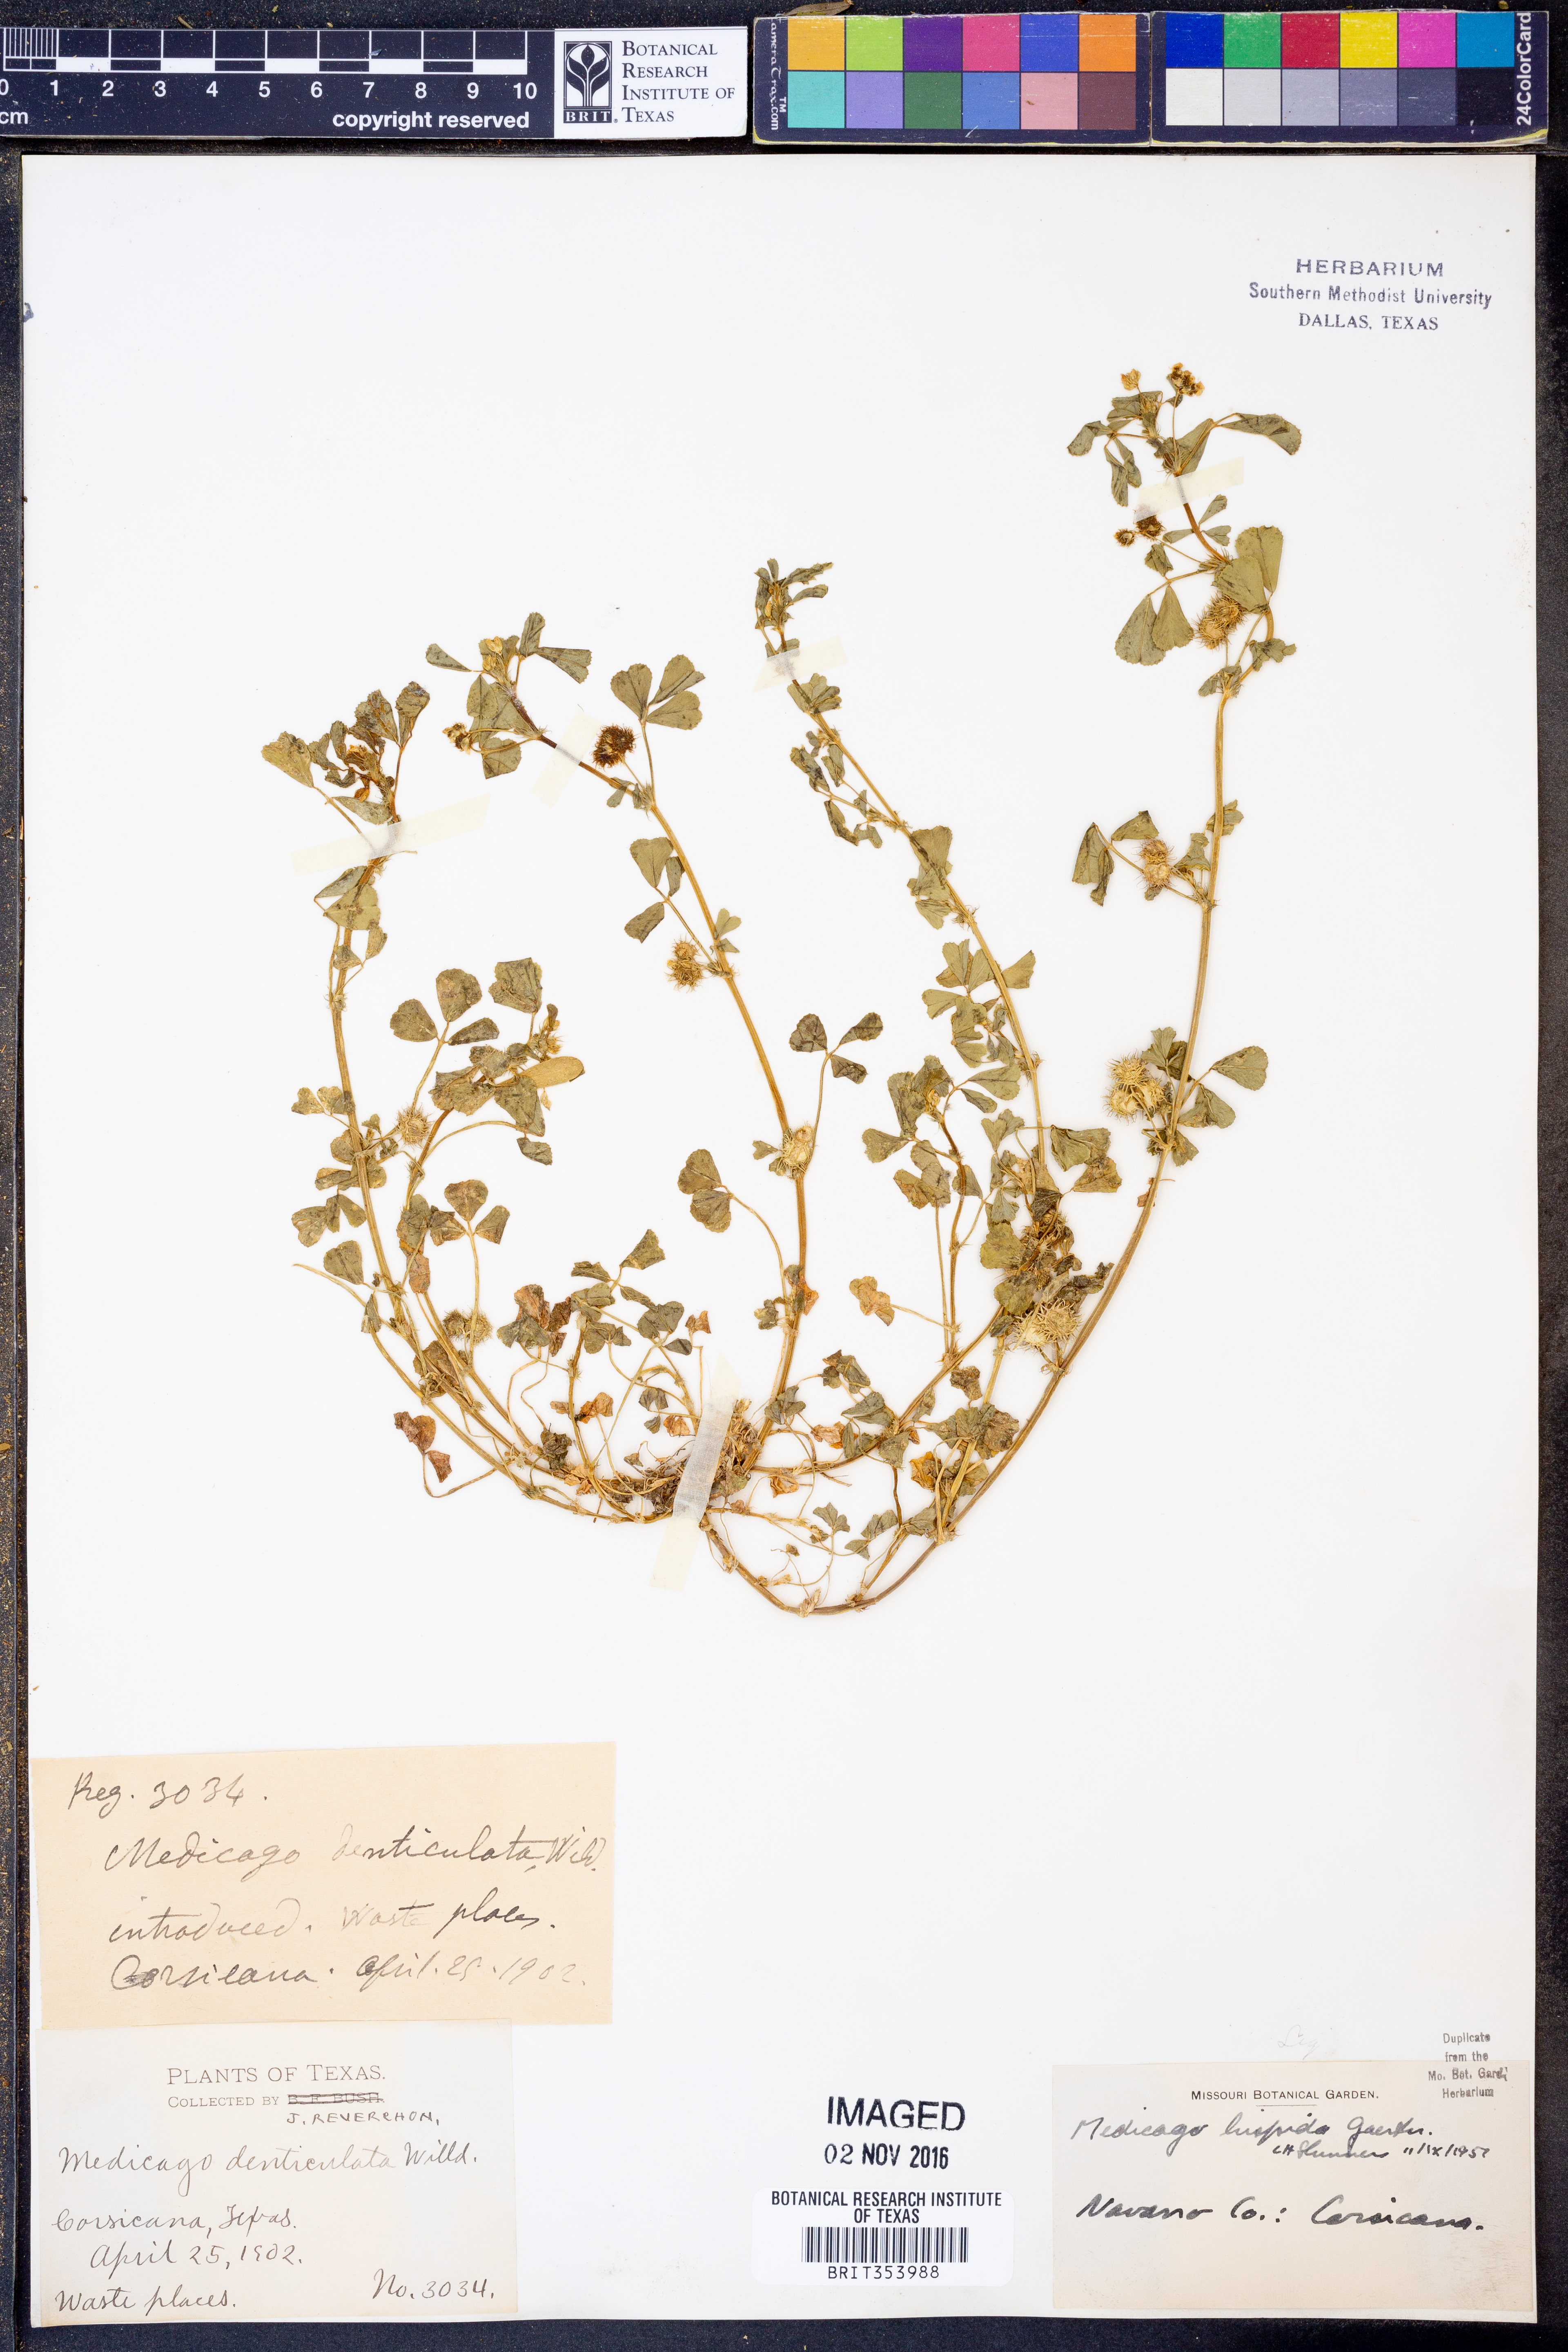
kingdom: Plantae
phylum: Tracheophyta
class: Magnoliopsida
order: Fabales
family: Fabaceae
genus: Medicago
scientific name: Medicago polymorpha
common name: Burclover
